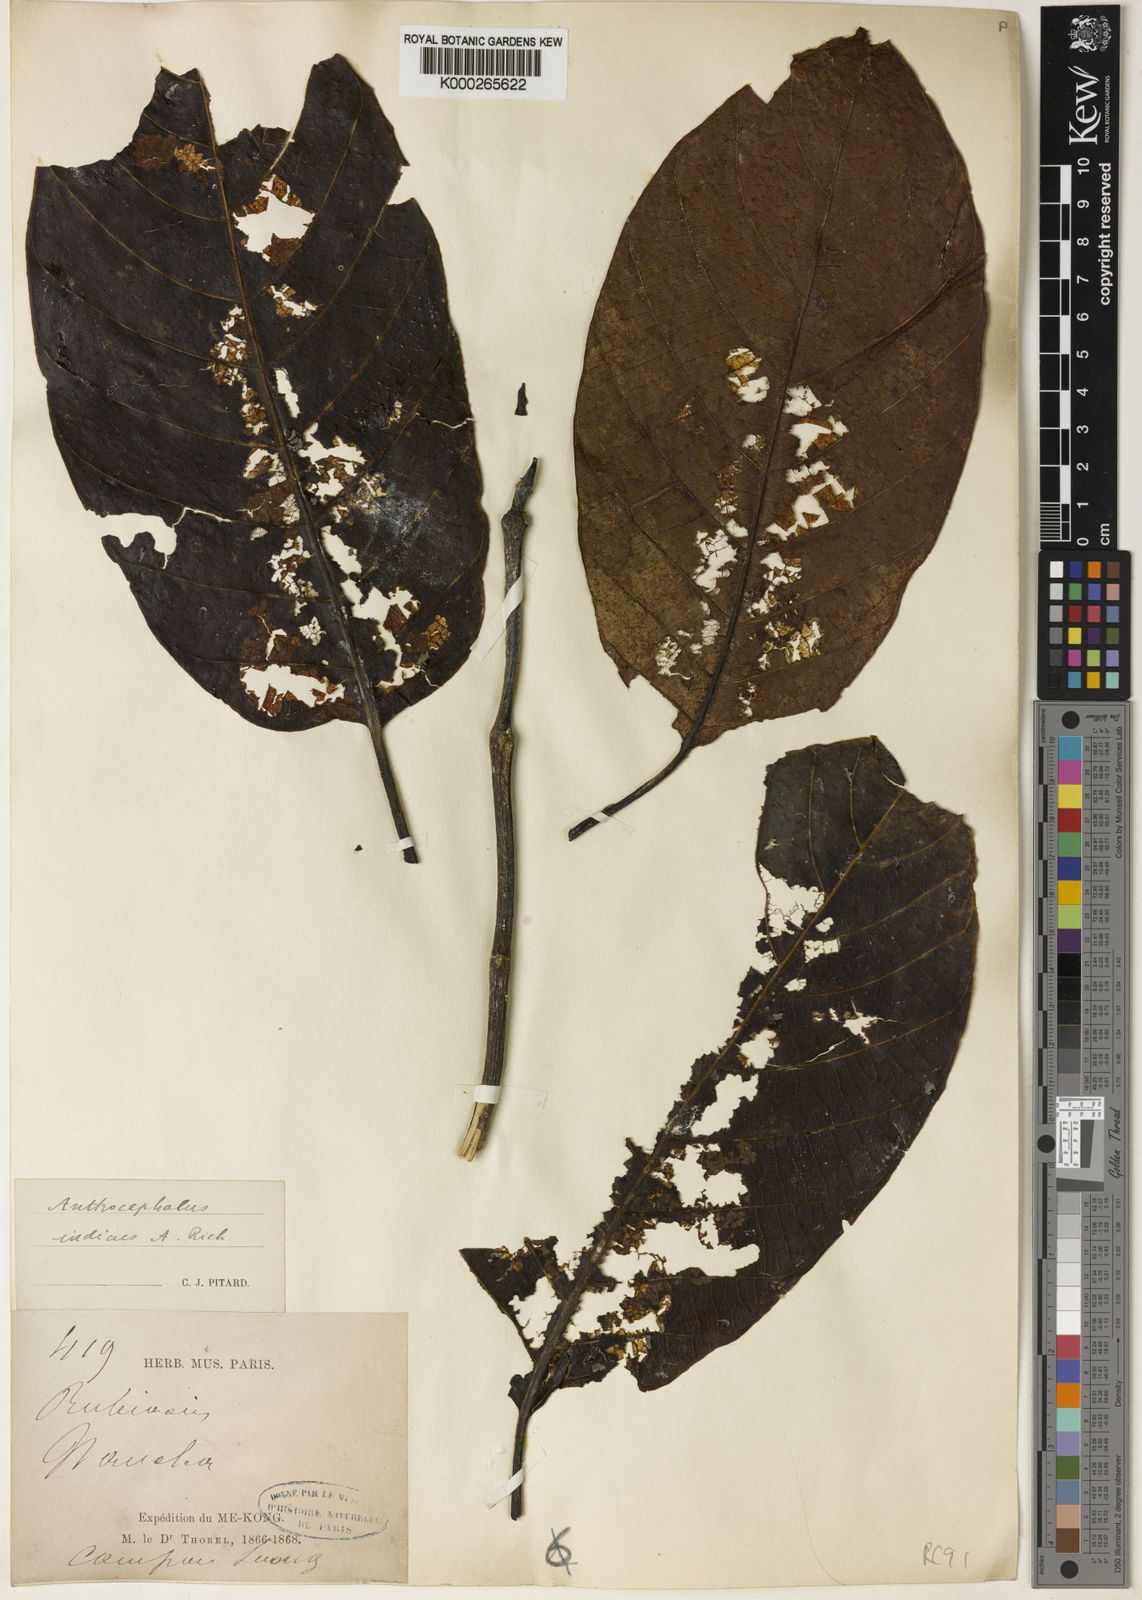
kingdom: Plantae
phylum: Tracheophyta
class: Magnoliopsida
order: Gentianales
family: Rubiaceae
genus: Neolamarckia
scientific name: Neolamarckia cadamba
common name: Leichhardt-pine
